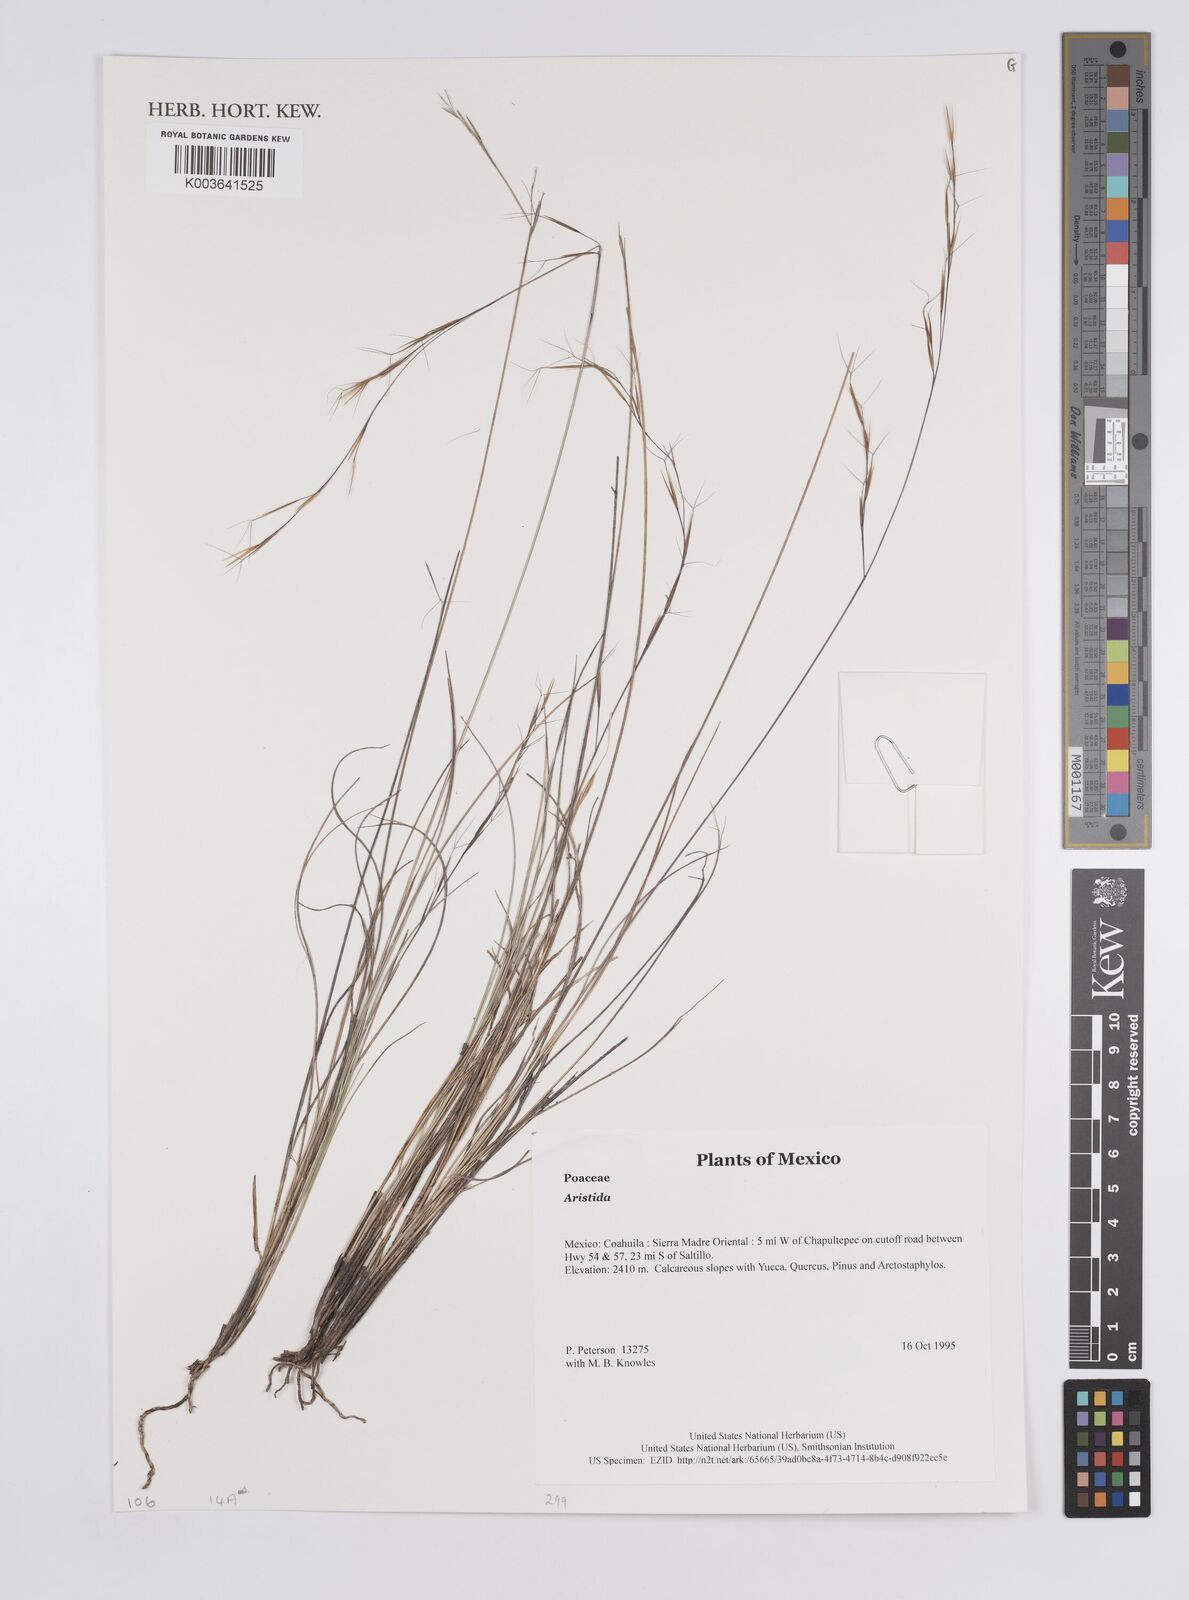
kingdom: Plantae
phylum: Tracheophyta
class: Liliopsida
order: Poales
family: Poaceae
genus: Aristida
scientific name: Aristida
